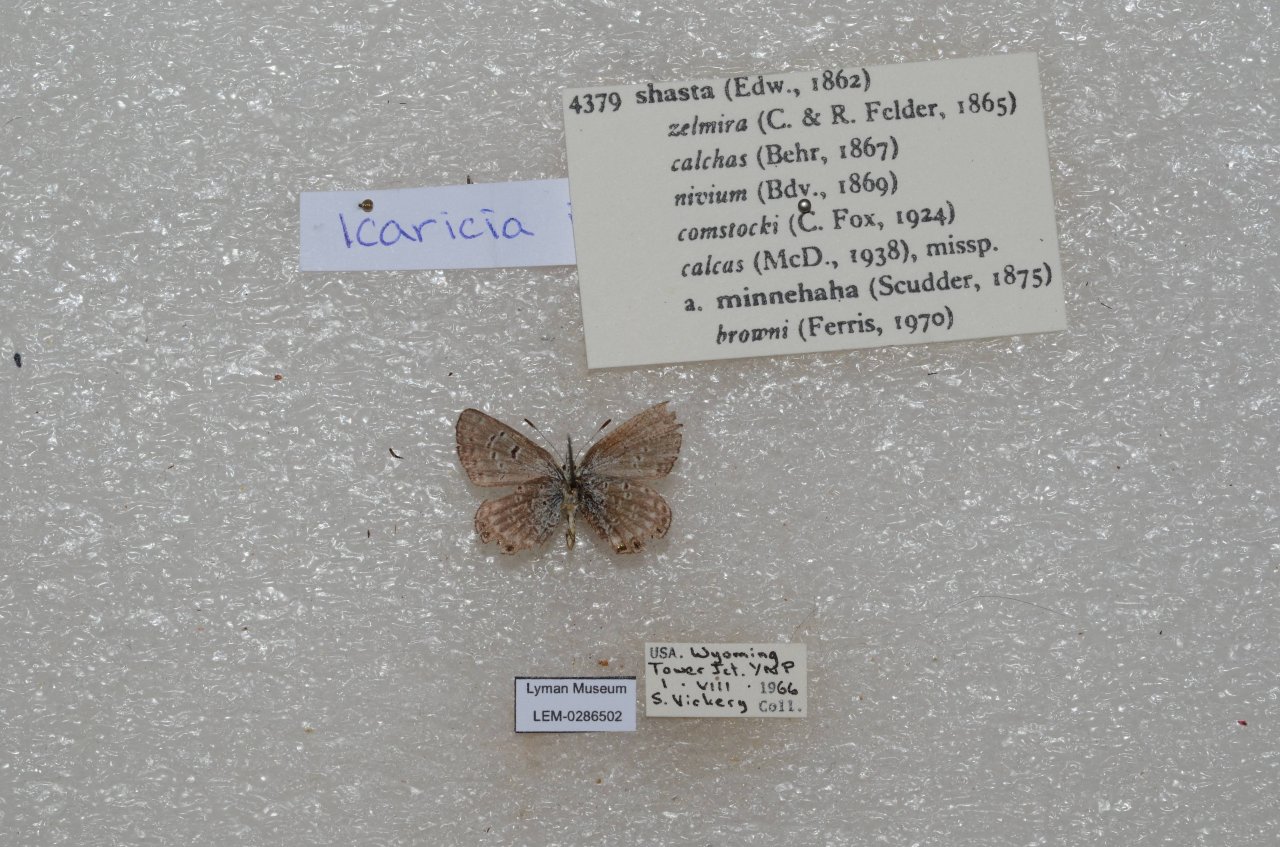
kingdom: Animalia
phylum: Arthropoda
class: Insecta
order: Lepidoptera
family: Lycaenidae
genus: Plebejus
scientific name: Plebejus shasta
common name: Shasta Blue
